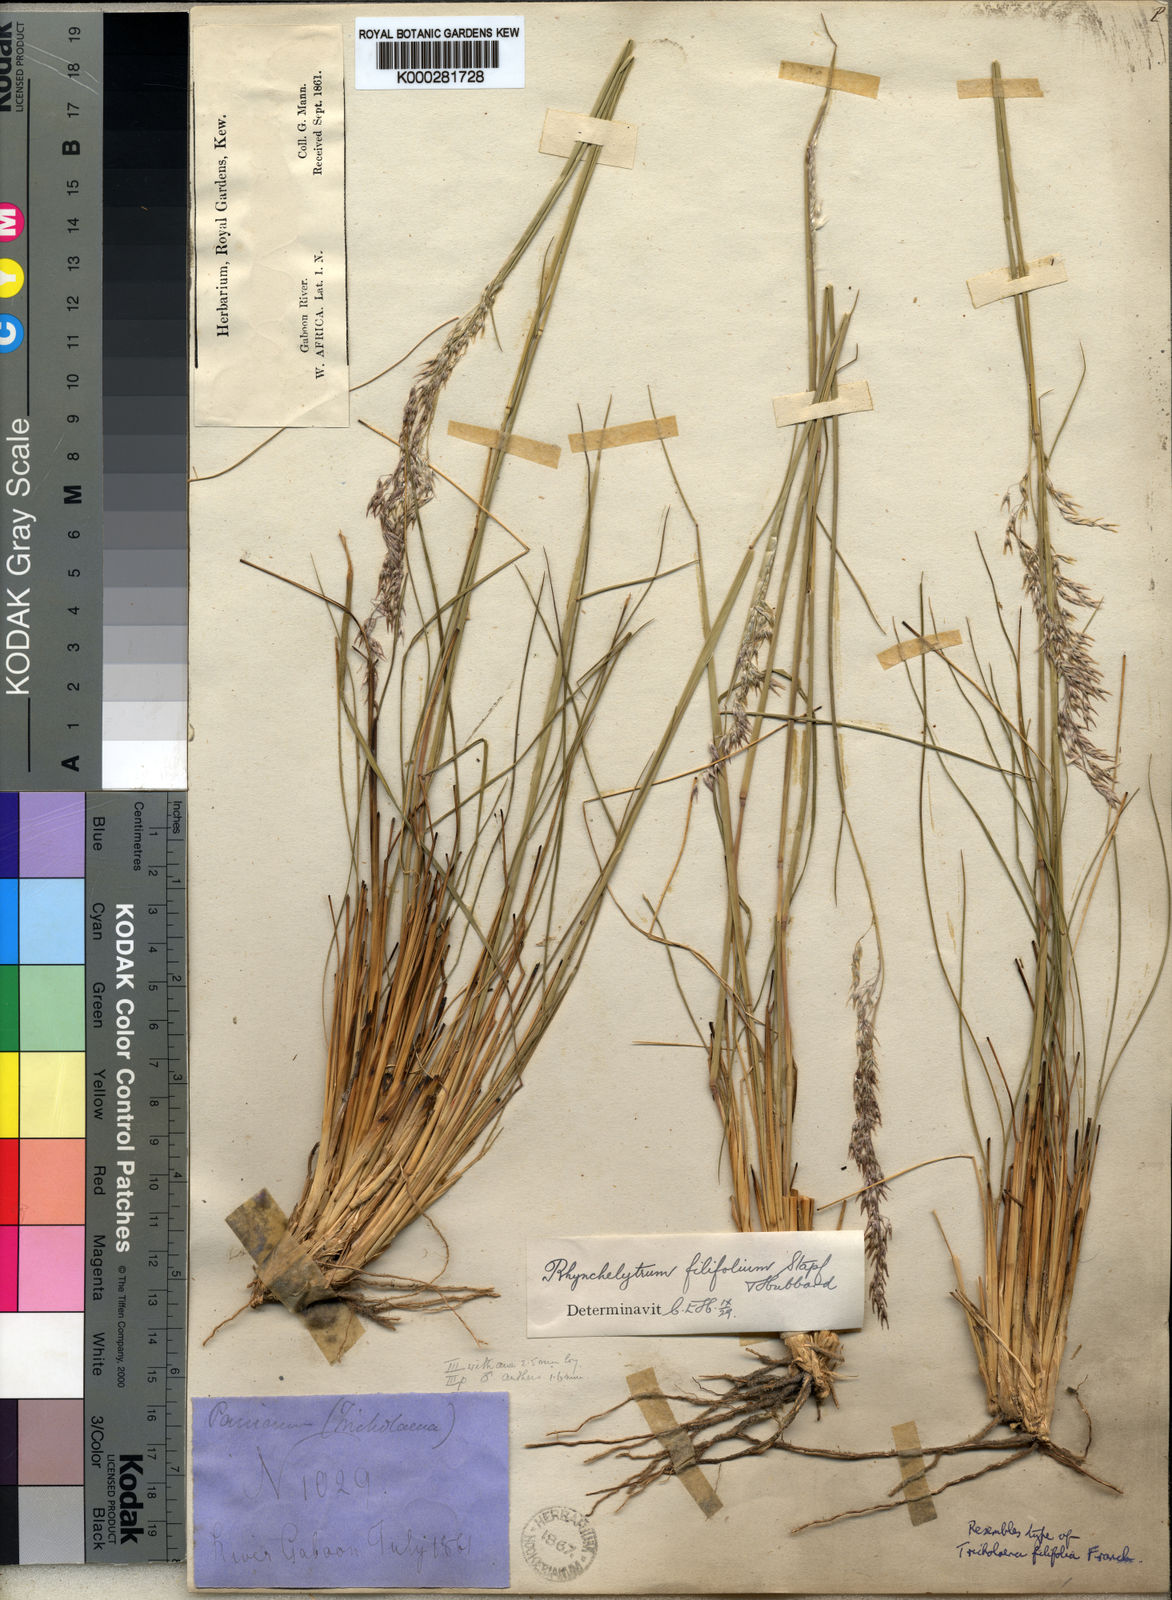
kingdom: Plantae
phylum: Tracheophyta
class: Liliopsida
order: Poales
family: Poaceae
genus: Melinis
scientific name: Melinis nerviglumis
